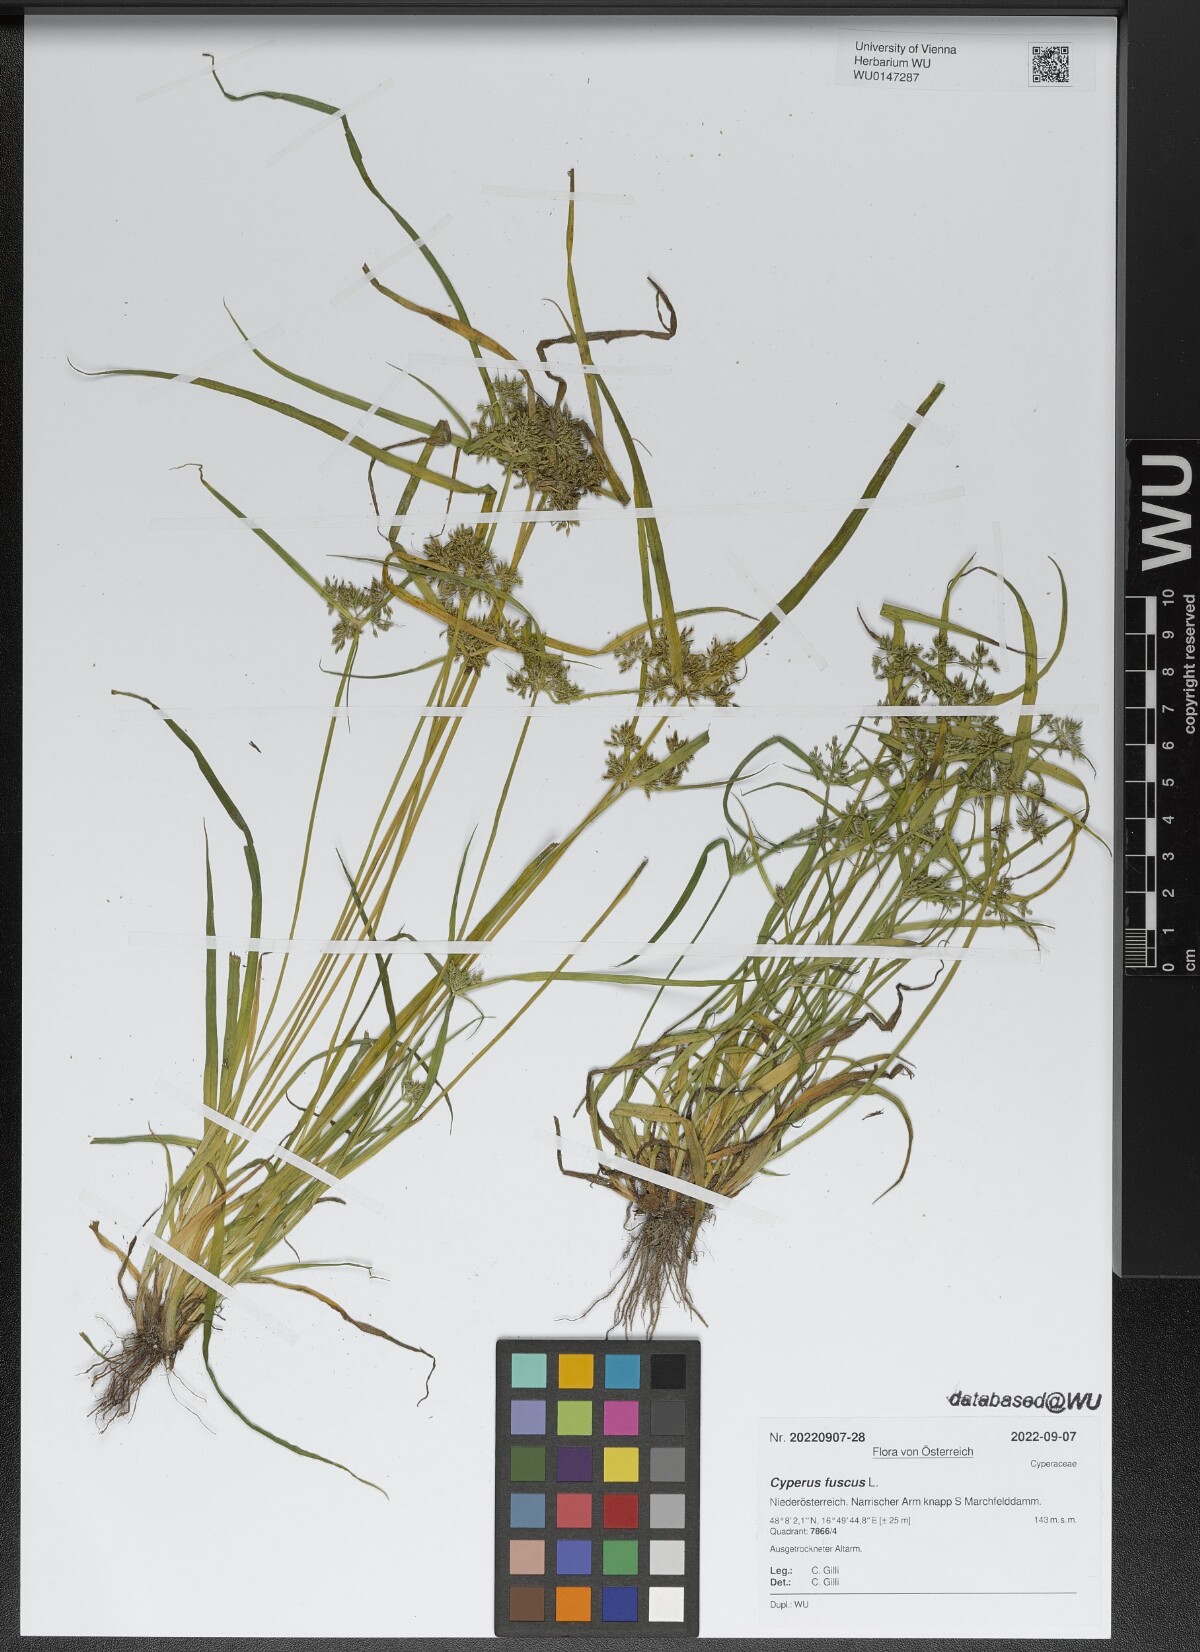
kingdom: Plantae
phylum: Tracheophyta
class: Liliopsida
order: Poales
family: Cyperaceae
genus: Cyperus
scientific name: Cyperus fuscus
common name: Brown galingale
